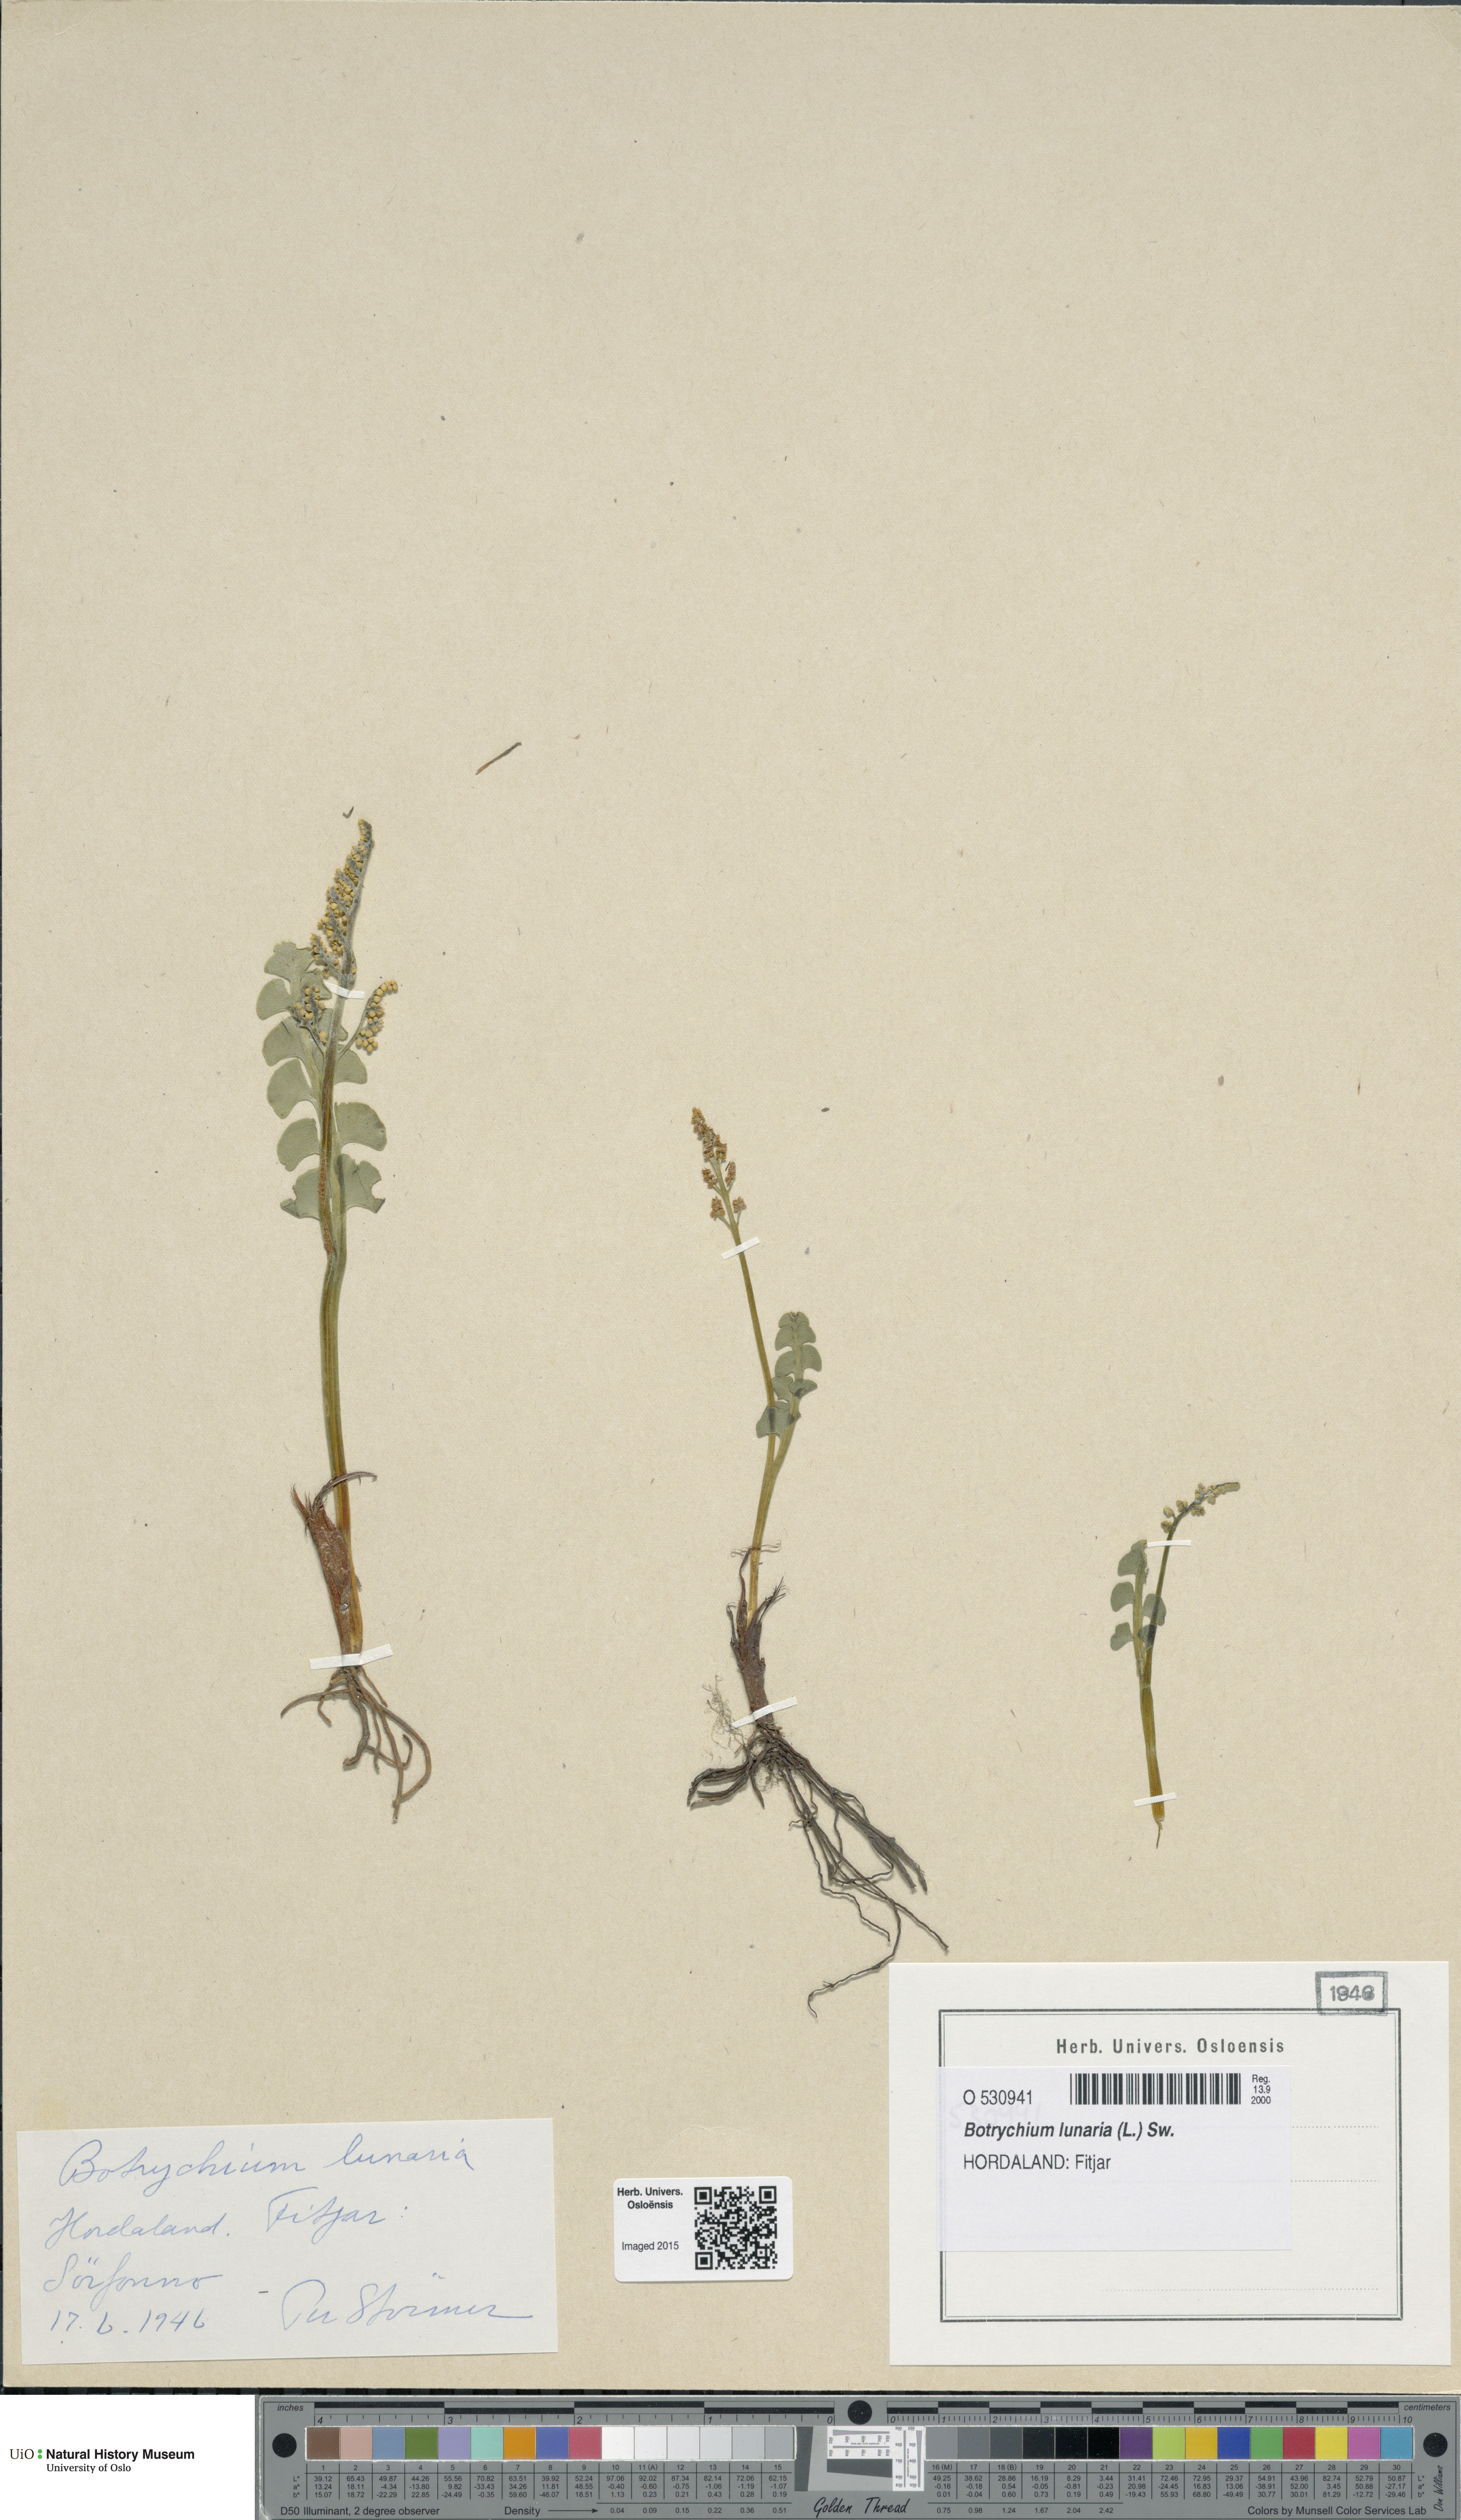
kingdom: Plantae
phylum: Tracheophyta
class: Polypodiopsida
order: Ophioglossales
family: Ophioglossaceae
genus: Botrychium
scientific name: Botrychium lunaria
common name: Moonwort
